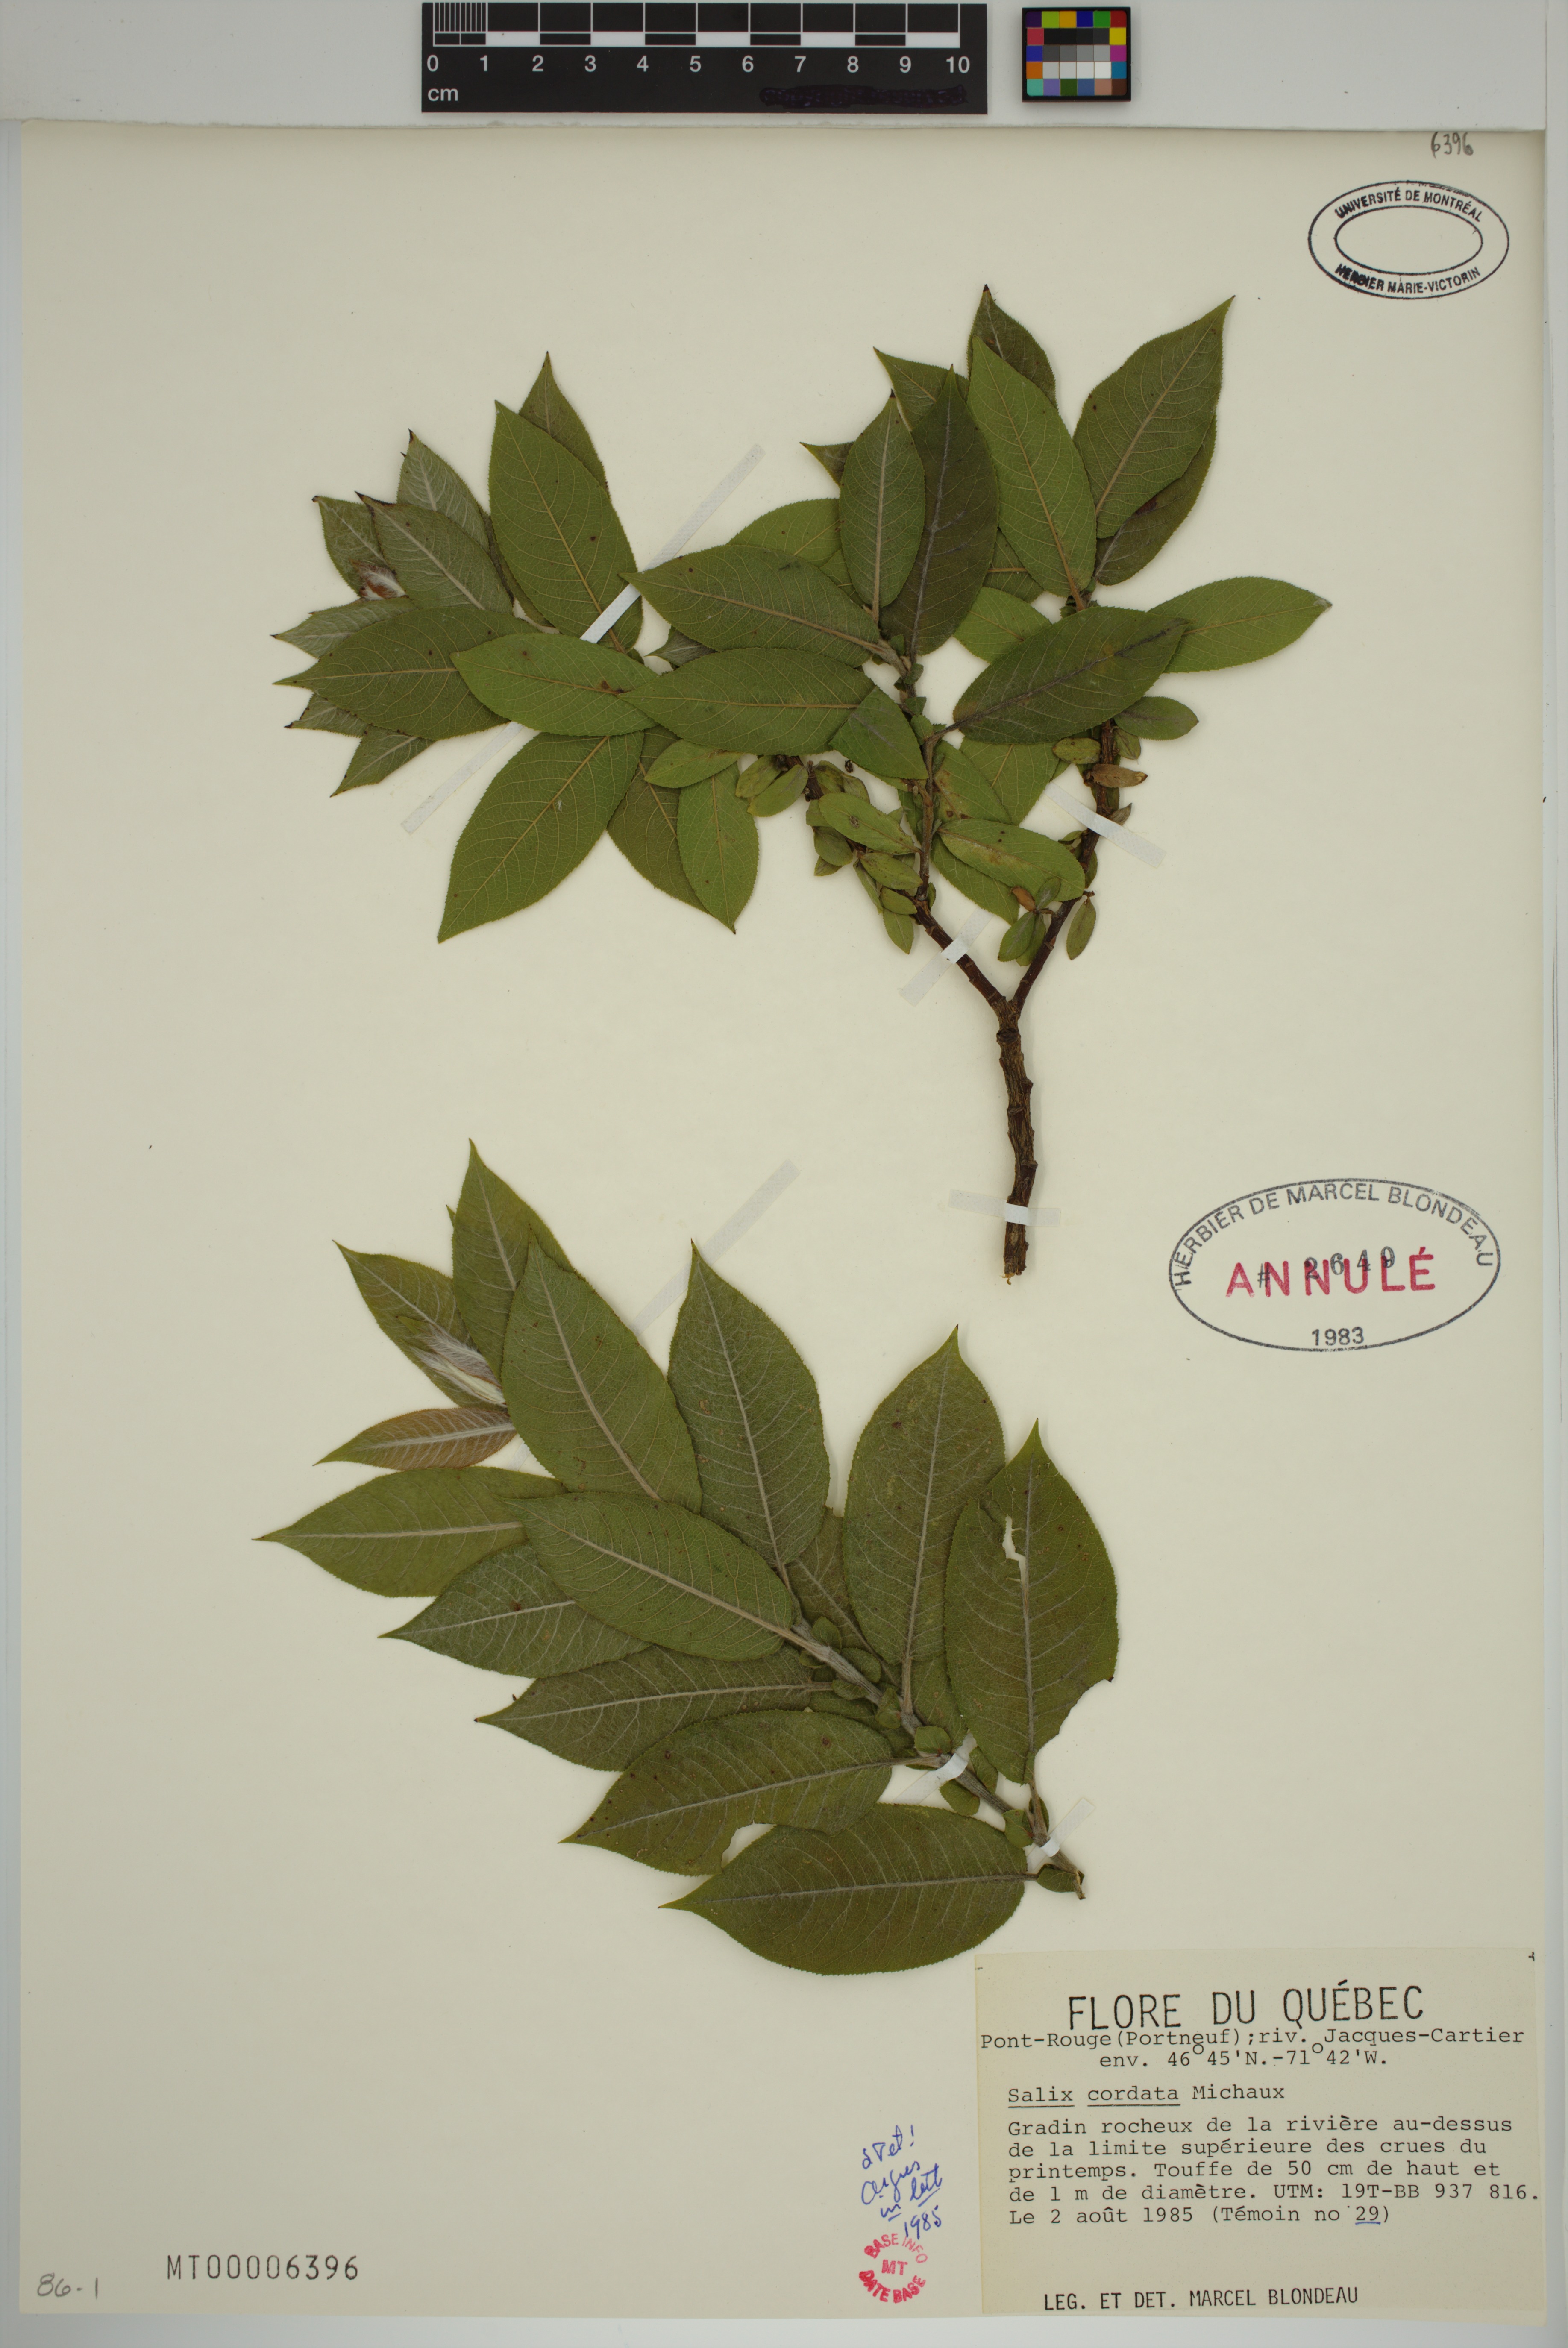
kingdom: Plantae
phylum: Tracheophyta
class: Magnoliopsida
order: Malpighiales
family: Salicaceae
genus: Salix
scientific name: Salix cordata
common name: Heart-leaf willow
